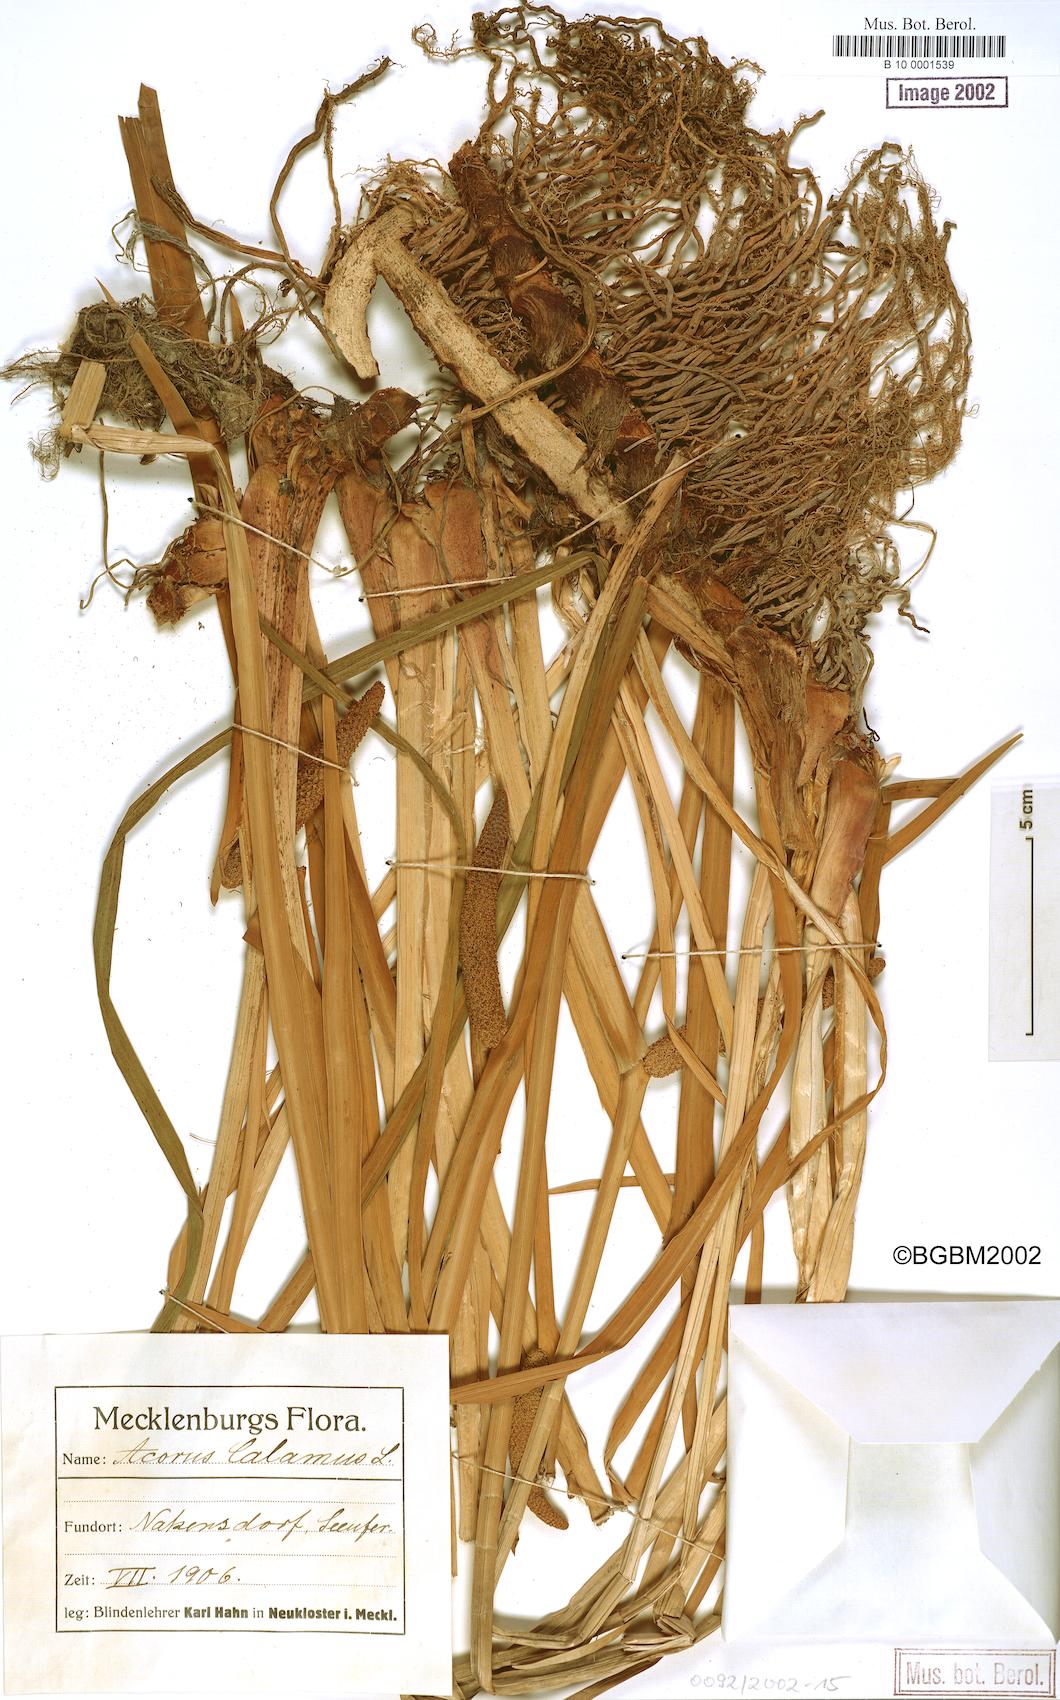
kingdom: Plantae
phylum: Tracheophyta
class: Liliopsida
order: Acorales
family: Acoraceae
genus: Acorus
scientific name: Acorus calamus
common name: Sweet-flag
